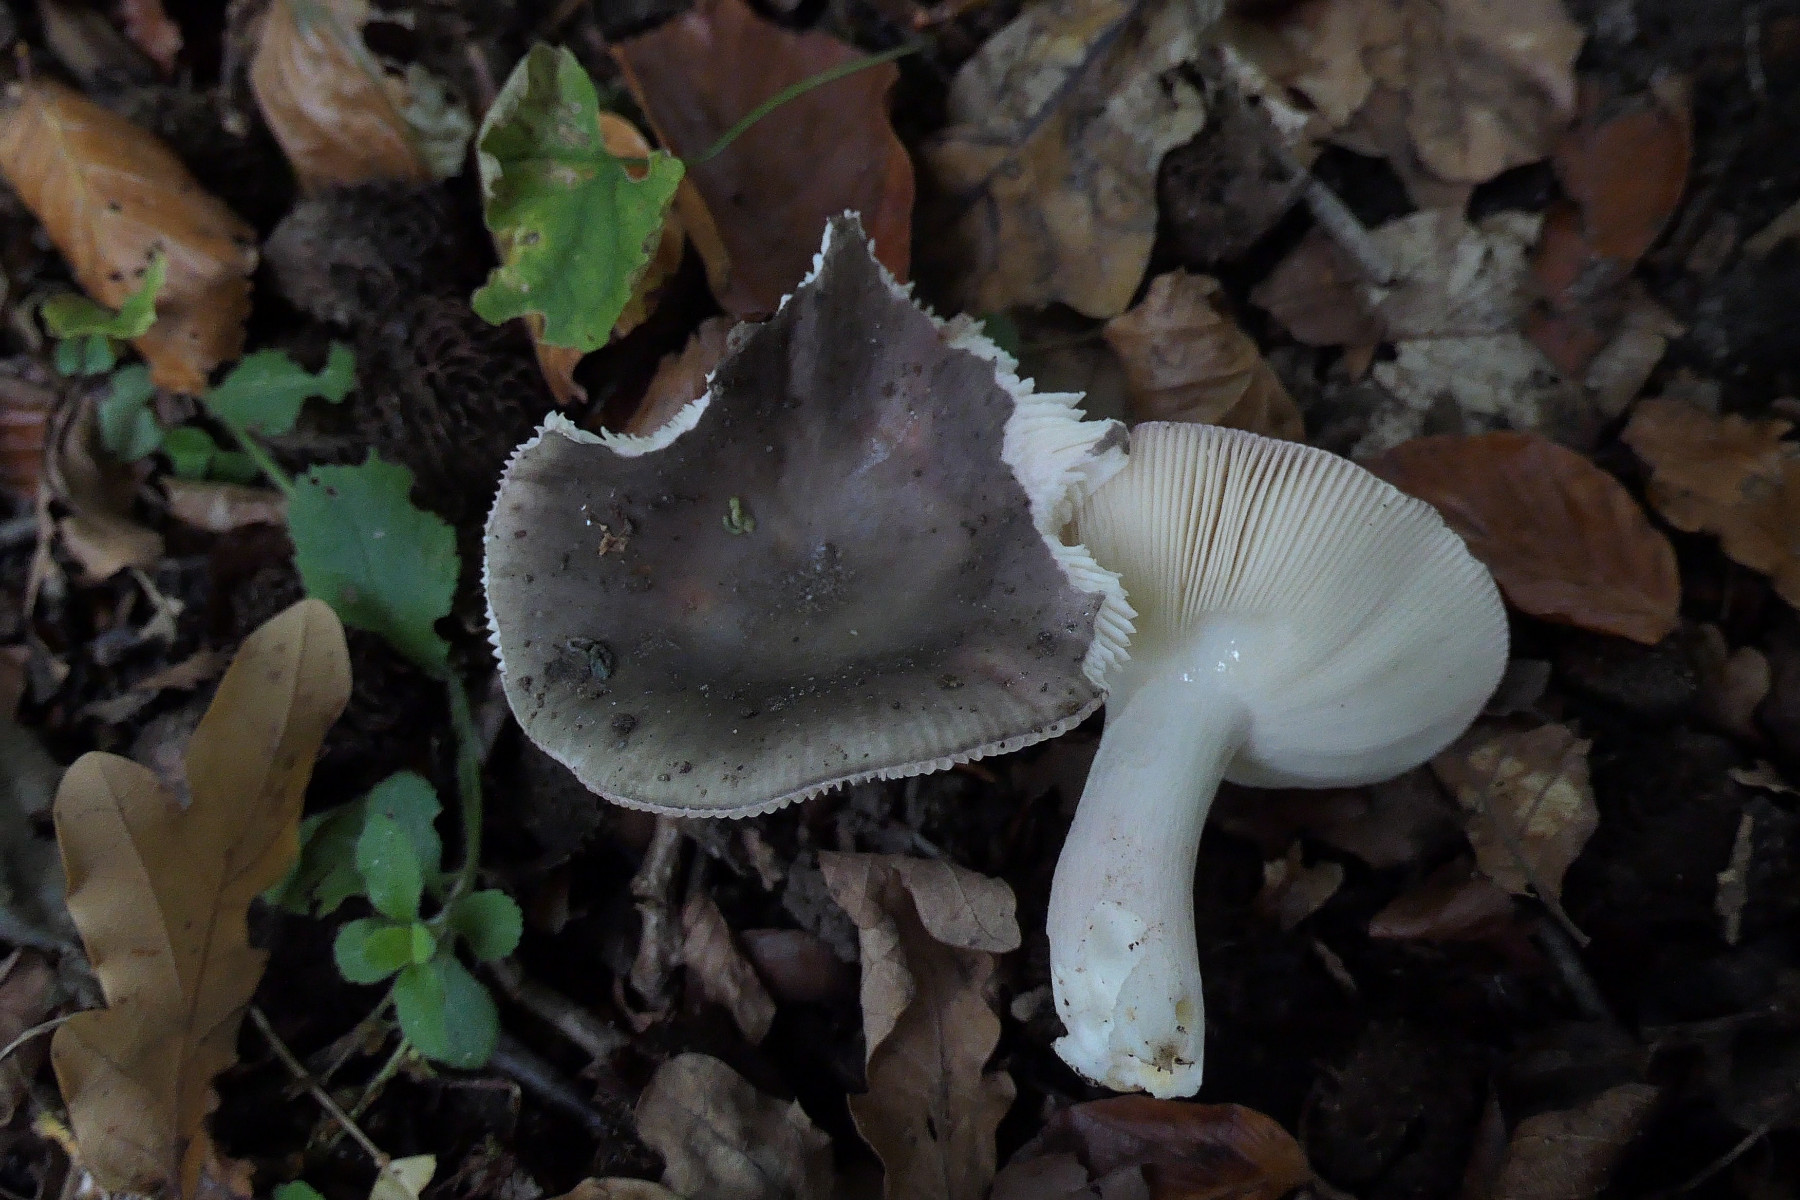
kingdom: Fungi
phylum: Basidiomycota
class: Agaricomycetes
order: Russulales
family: Russulaceae
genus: Russula
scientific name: Russula parazurea
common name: blågrå skørhat
